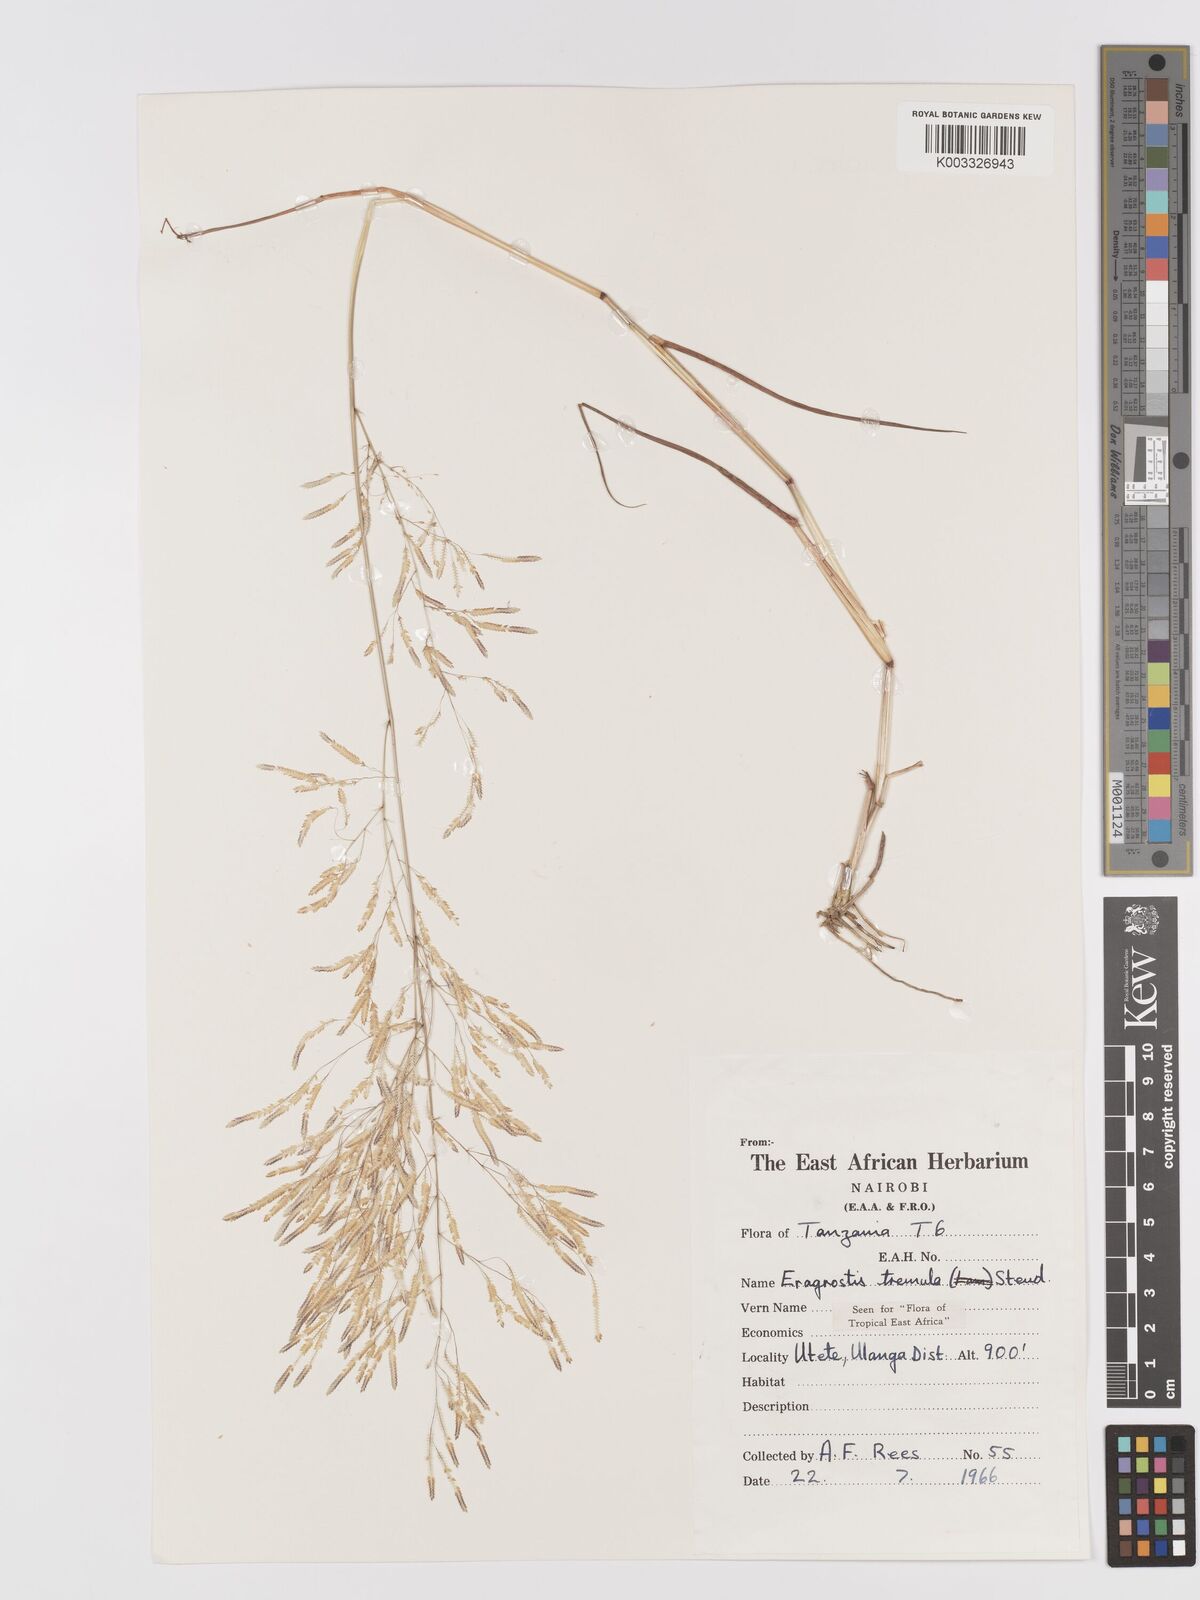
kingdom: Plantae
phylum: Tracheophyta
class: Liliopsida
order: Poales
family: Poaceae
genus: Eragrostis
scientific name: Eragrostis tremula
